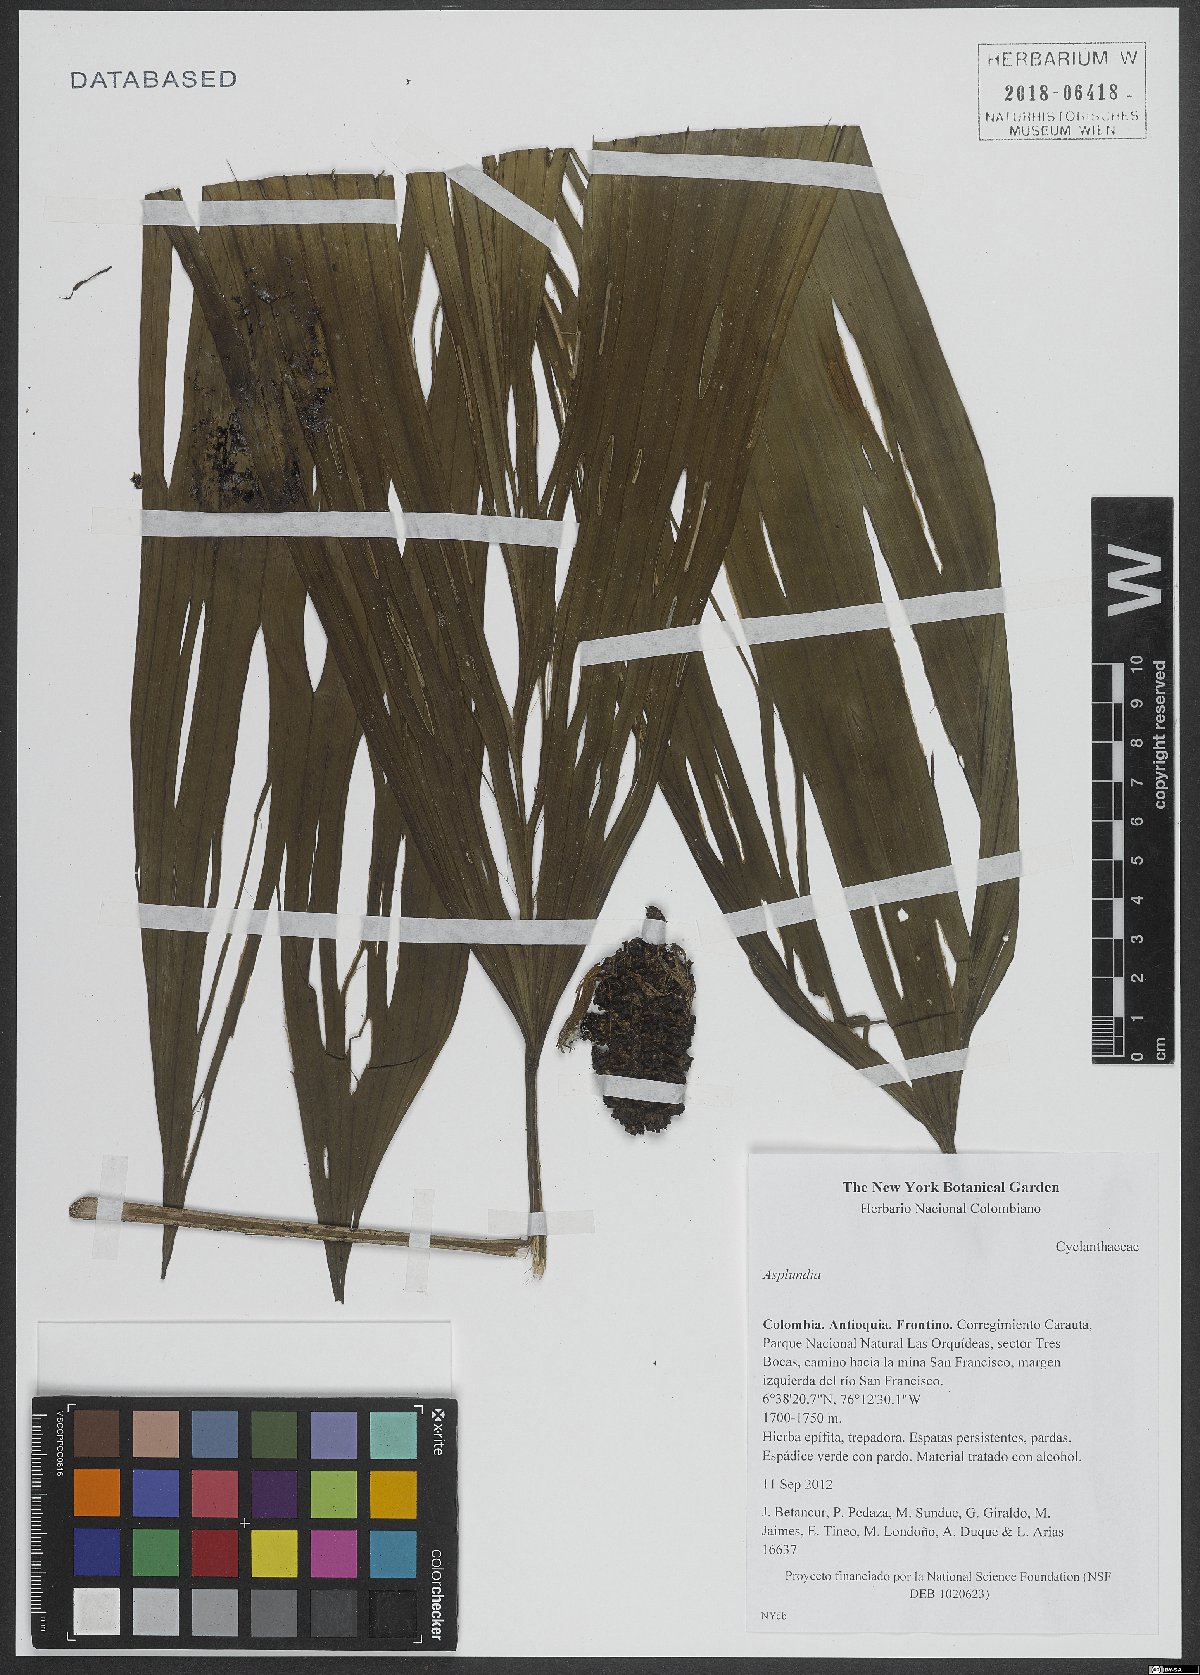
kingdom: Plantae
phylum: Tracheophyta
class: Liliopsida
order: Pandanales
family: Cyclanthaceae
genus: Asplundia
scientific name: Asplundia
